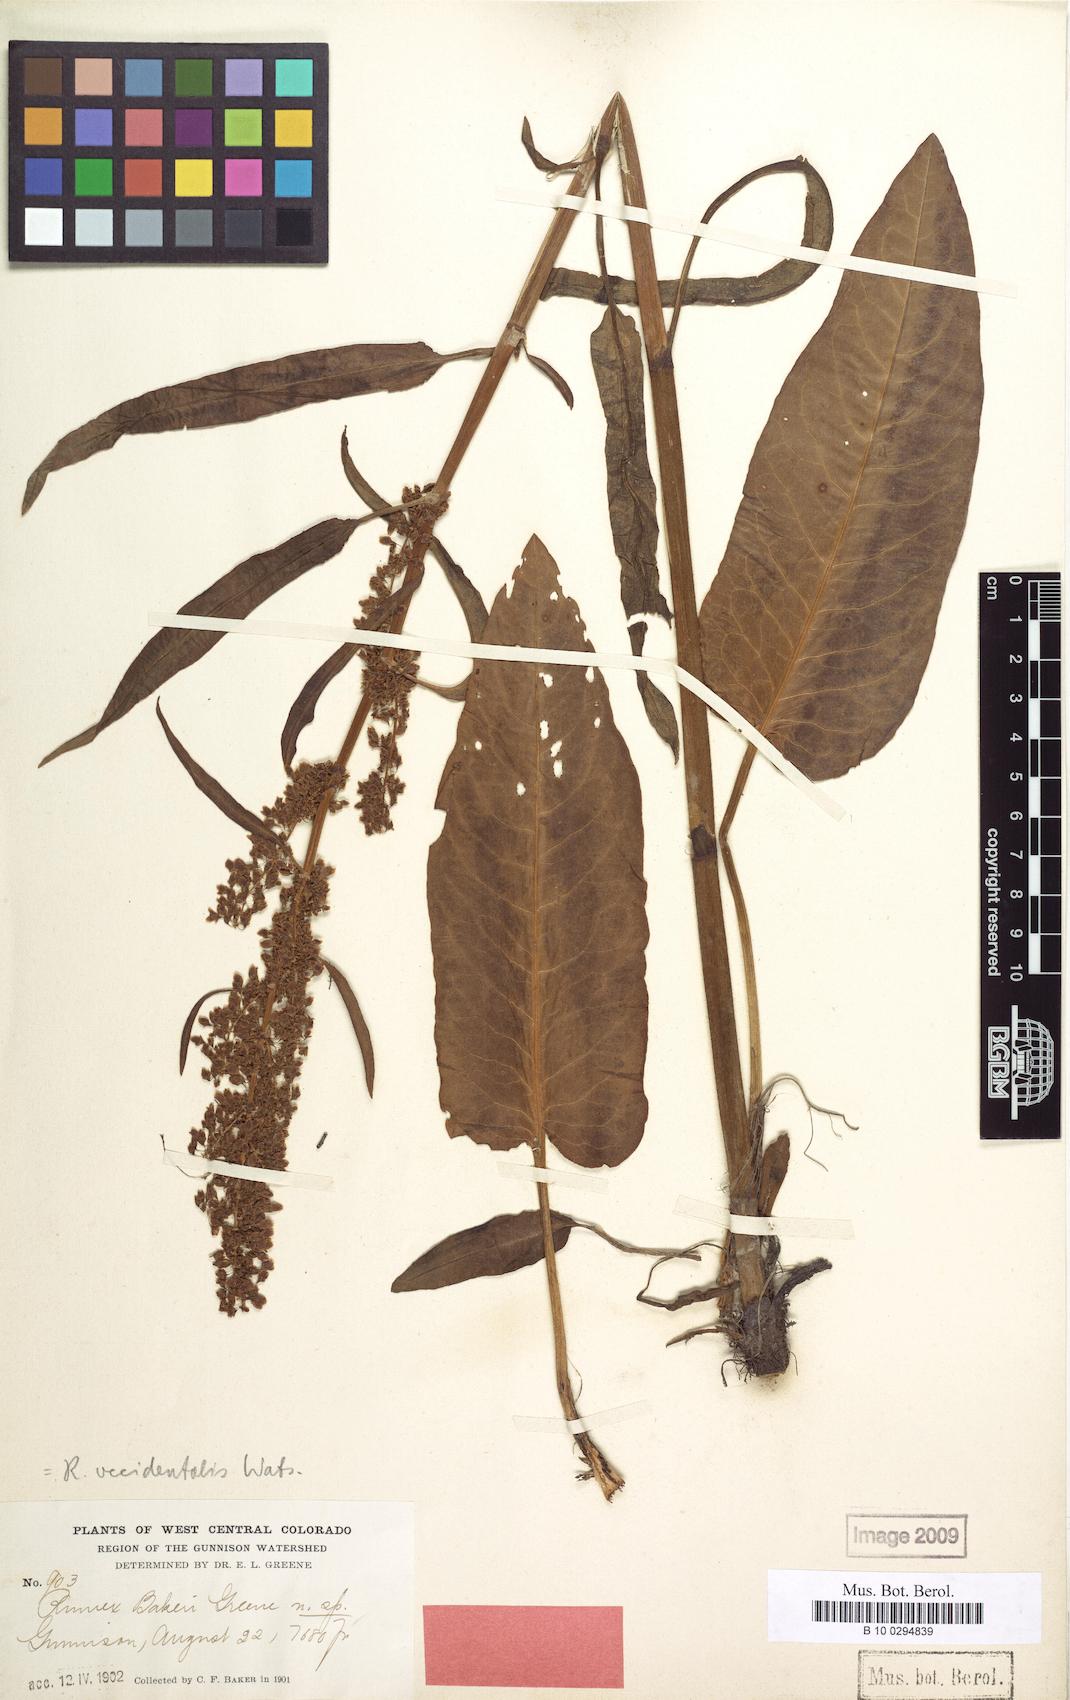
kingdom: Plantae
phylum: Tracheophyta
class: Magnoliopsida
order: Caryophyllales
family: Polygonaceae
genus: Rumex
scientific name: Rumex occidentalis
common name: Western dock
